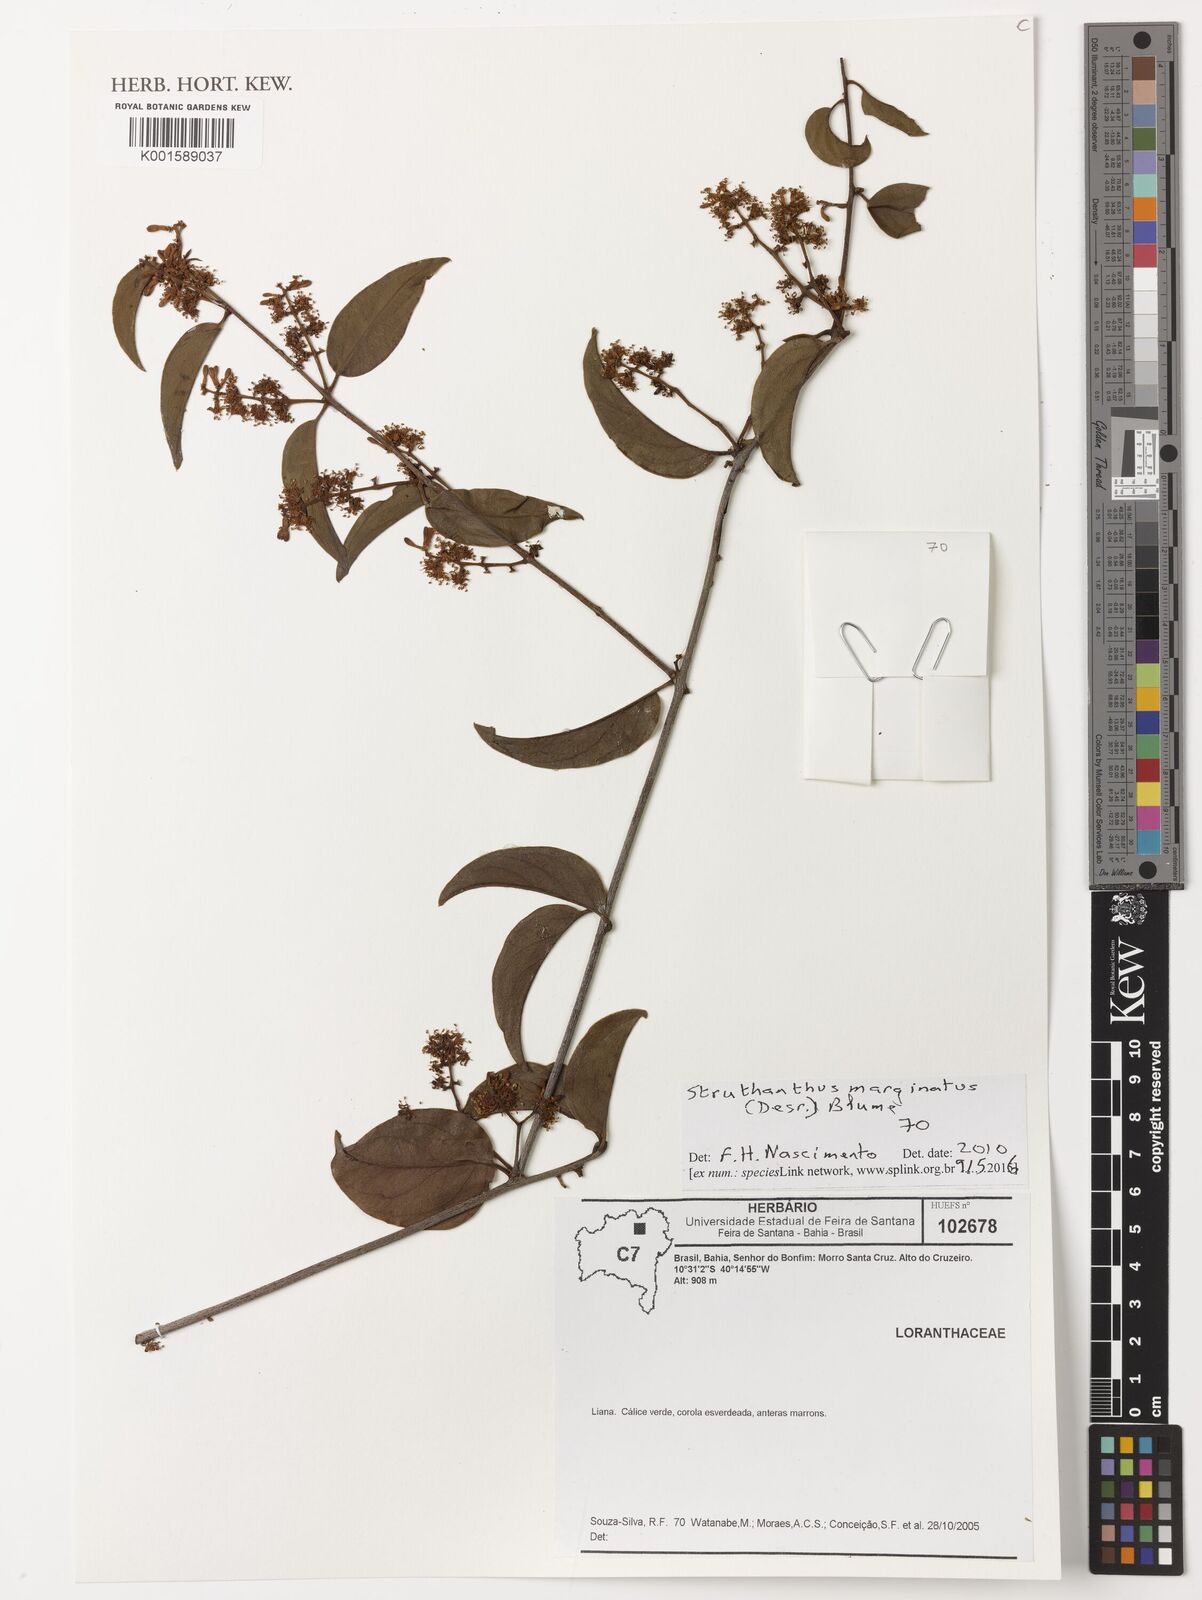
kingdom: Plantae
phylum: Tracheophyta
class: Magnoliopsida
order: Santalales
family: Loranthaceae
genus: Struthanthus
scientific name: Struthanthus marginatus
